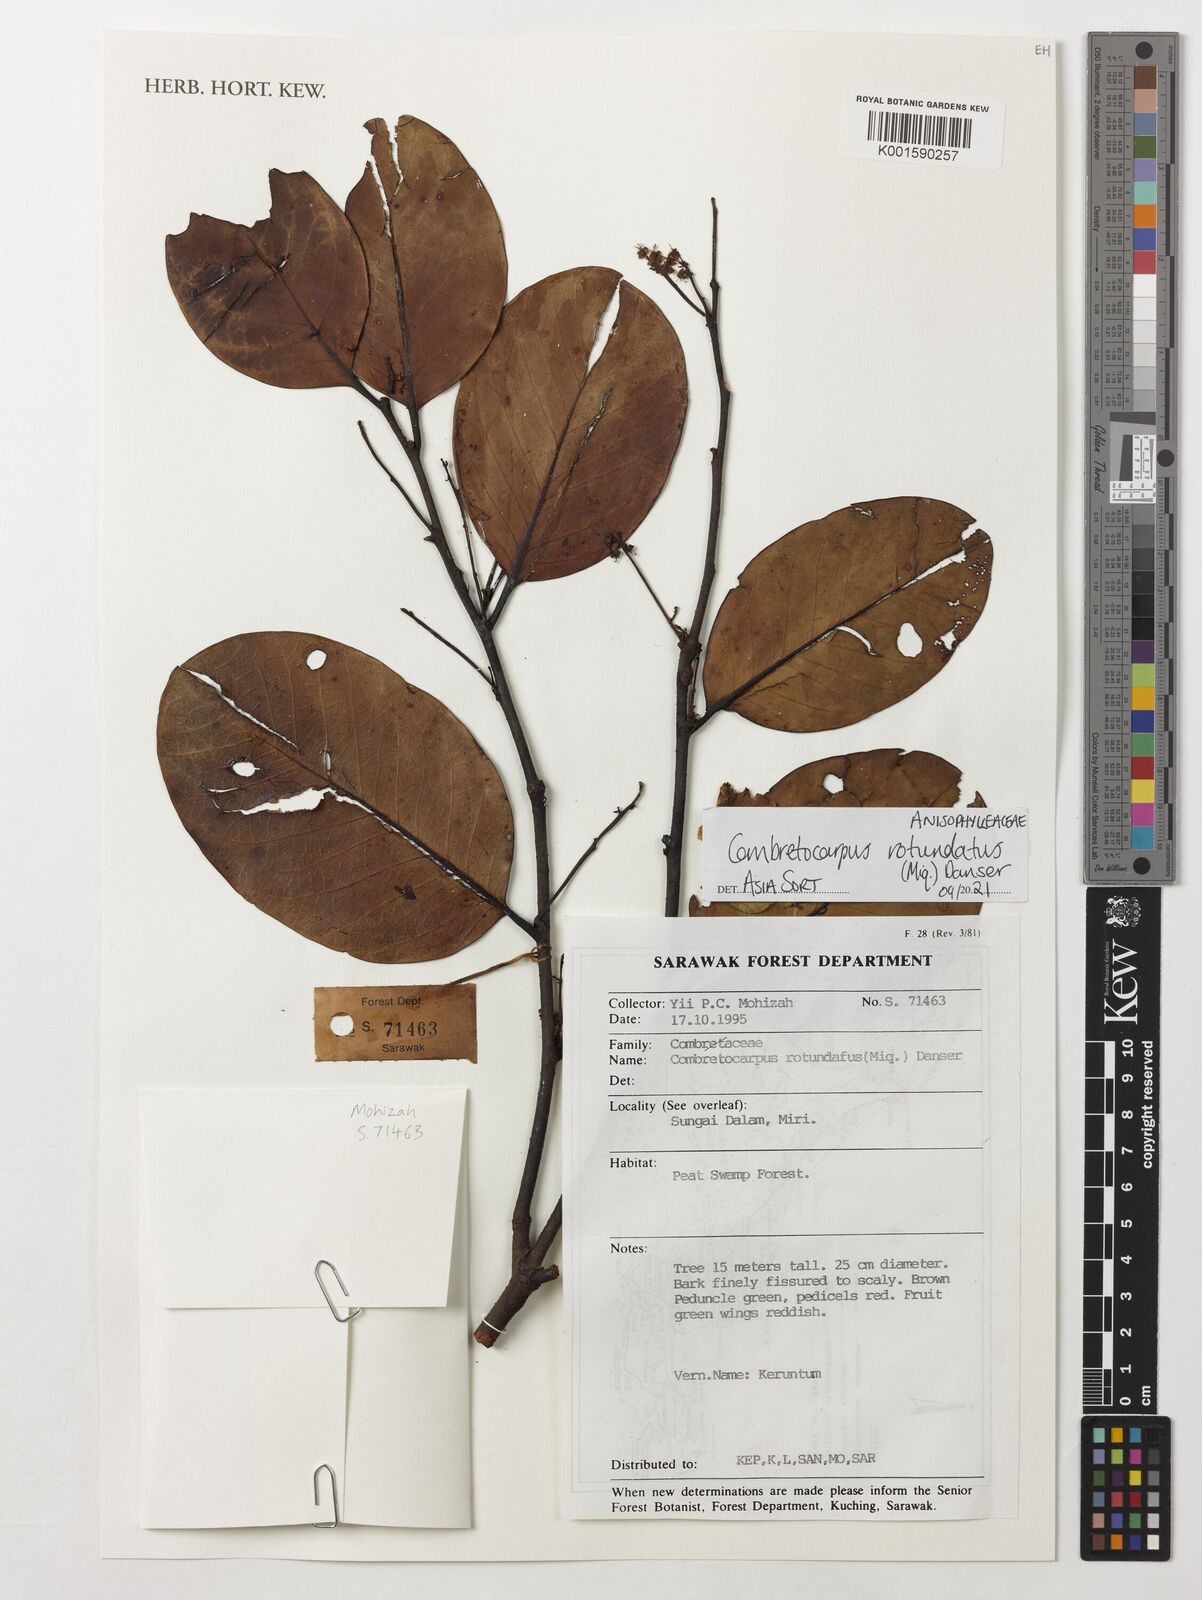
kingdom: Plantae
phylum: Tracheophyta
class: Magnoliopsida
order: Cucurbitales
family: Anisophylleaceae
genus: Combretocarpus
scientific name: Combretocarpus rotundatus
